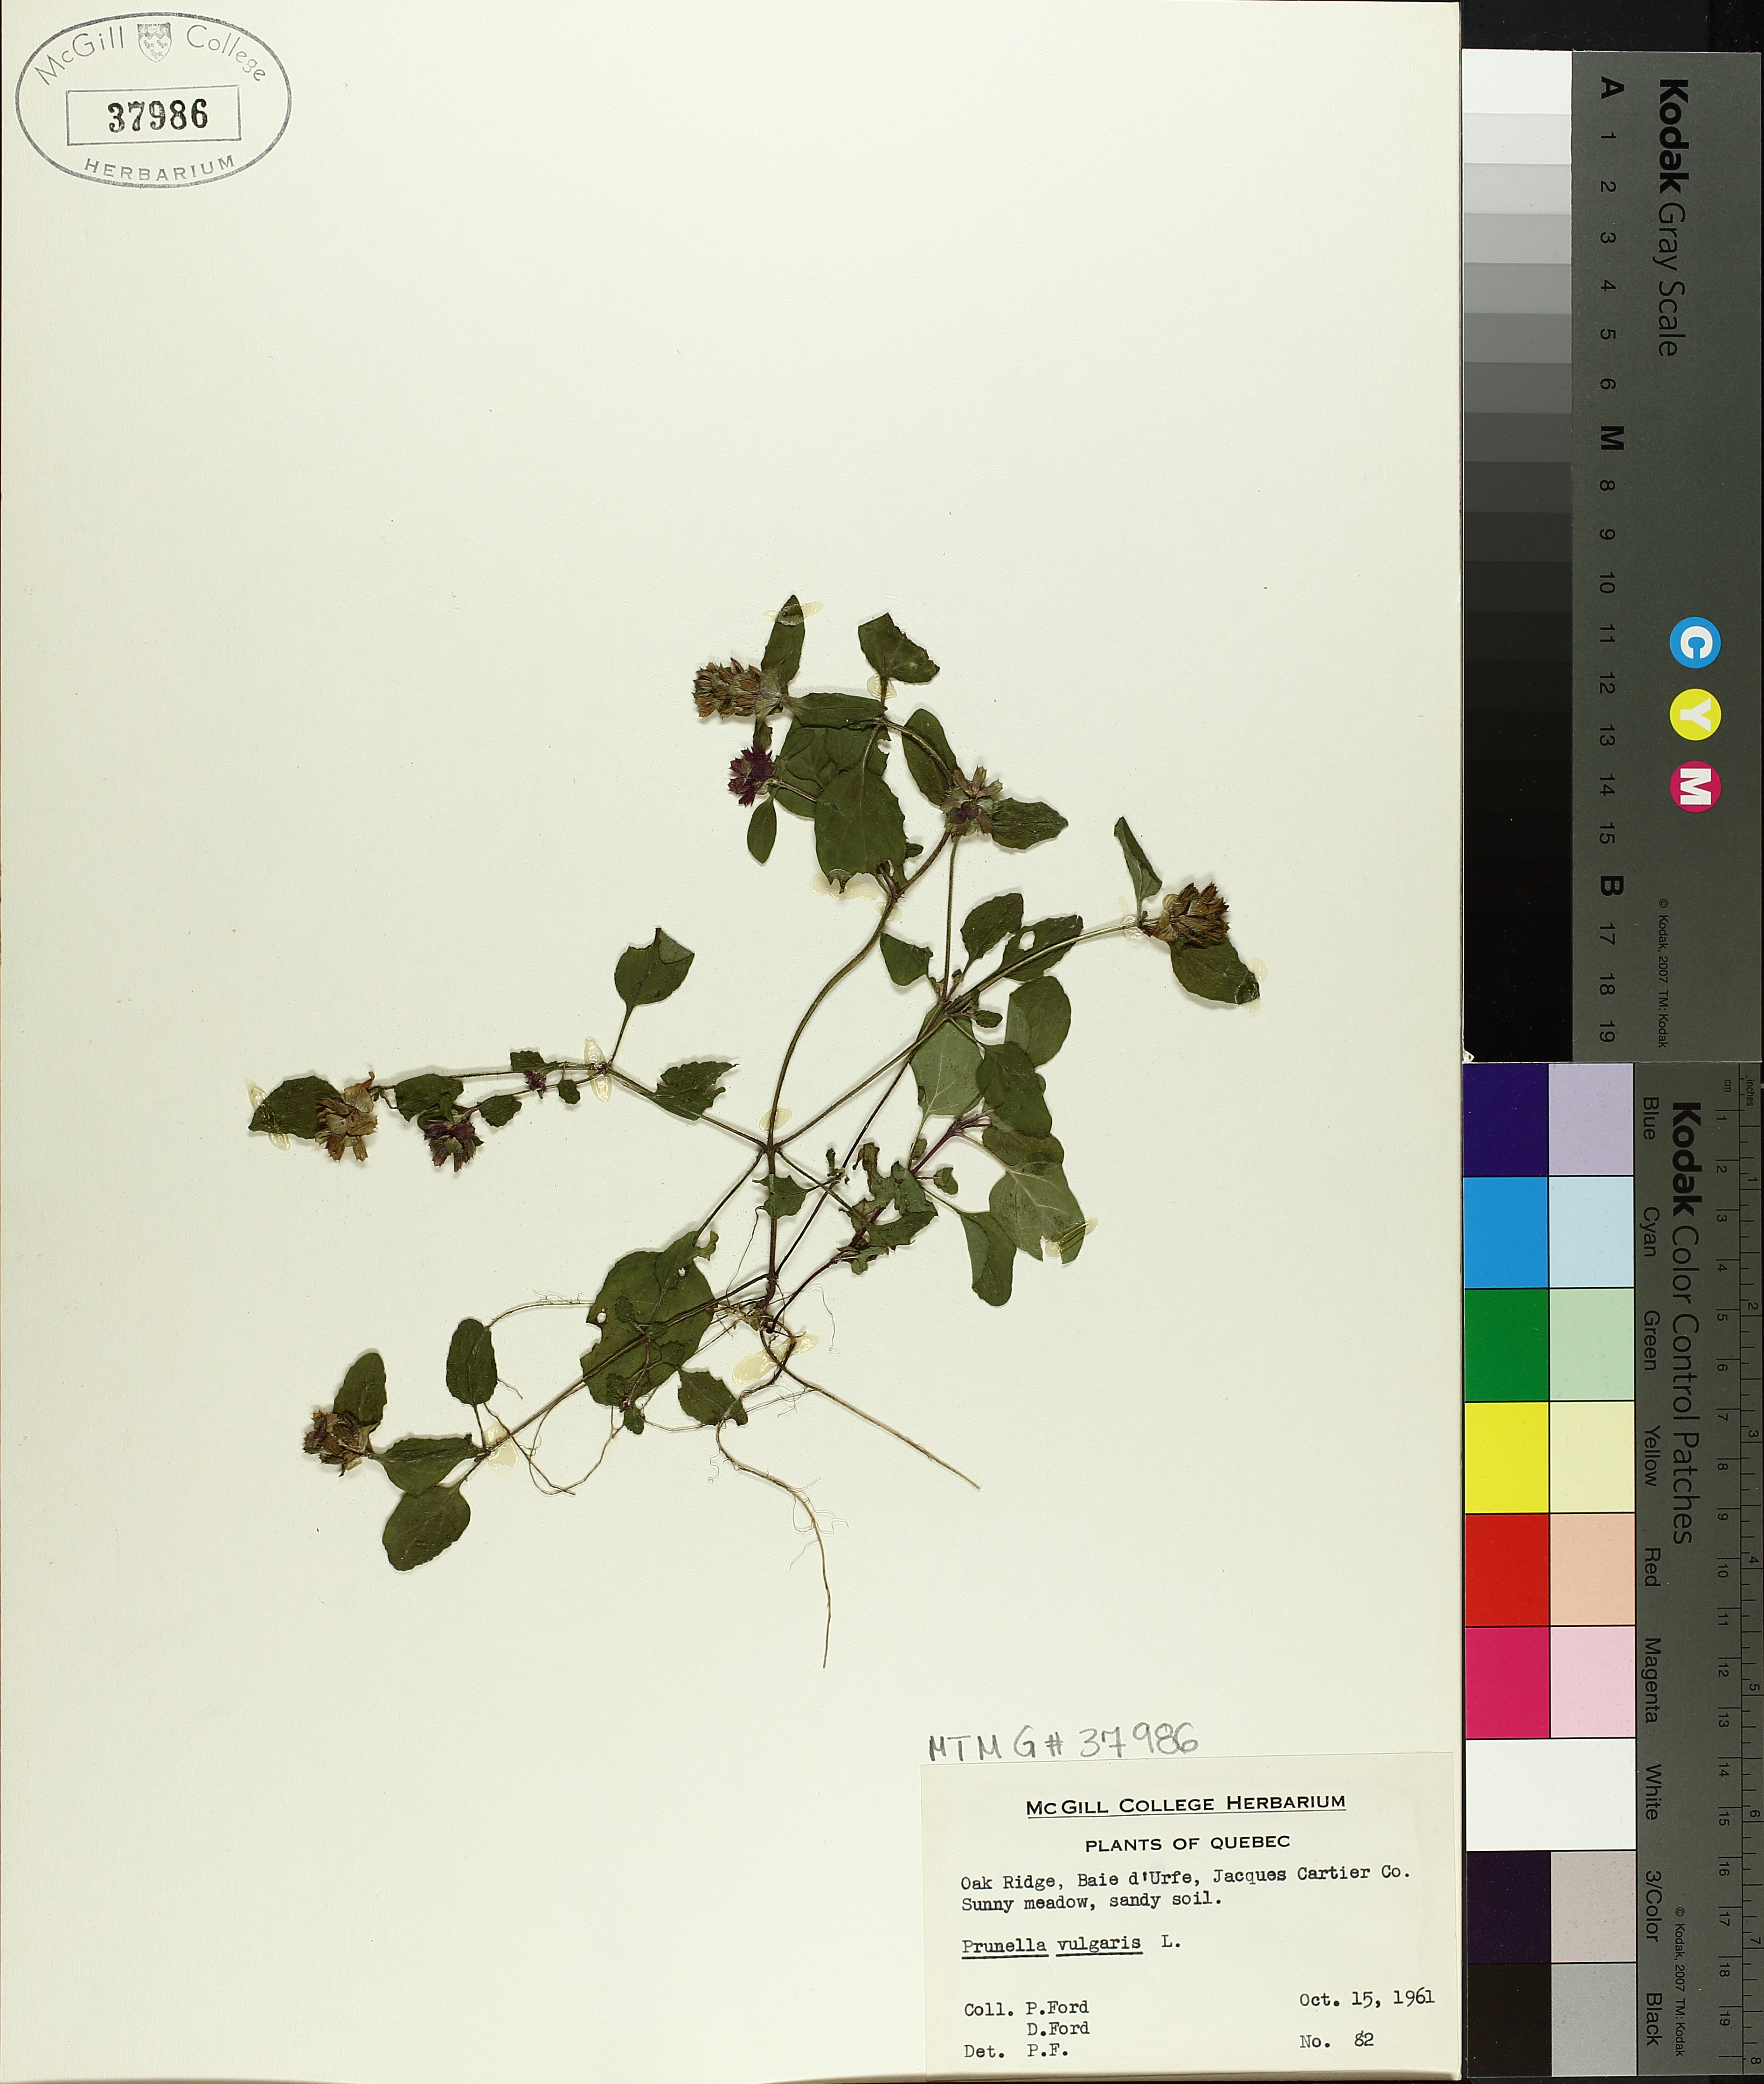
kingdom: Plantae
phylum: Tracheophyta
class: Magnoliopsida
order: Lamiales
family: Lamiaceae
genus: Prunella
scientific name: Prunella vulgaris
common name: Heal-all
